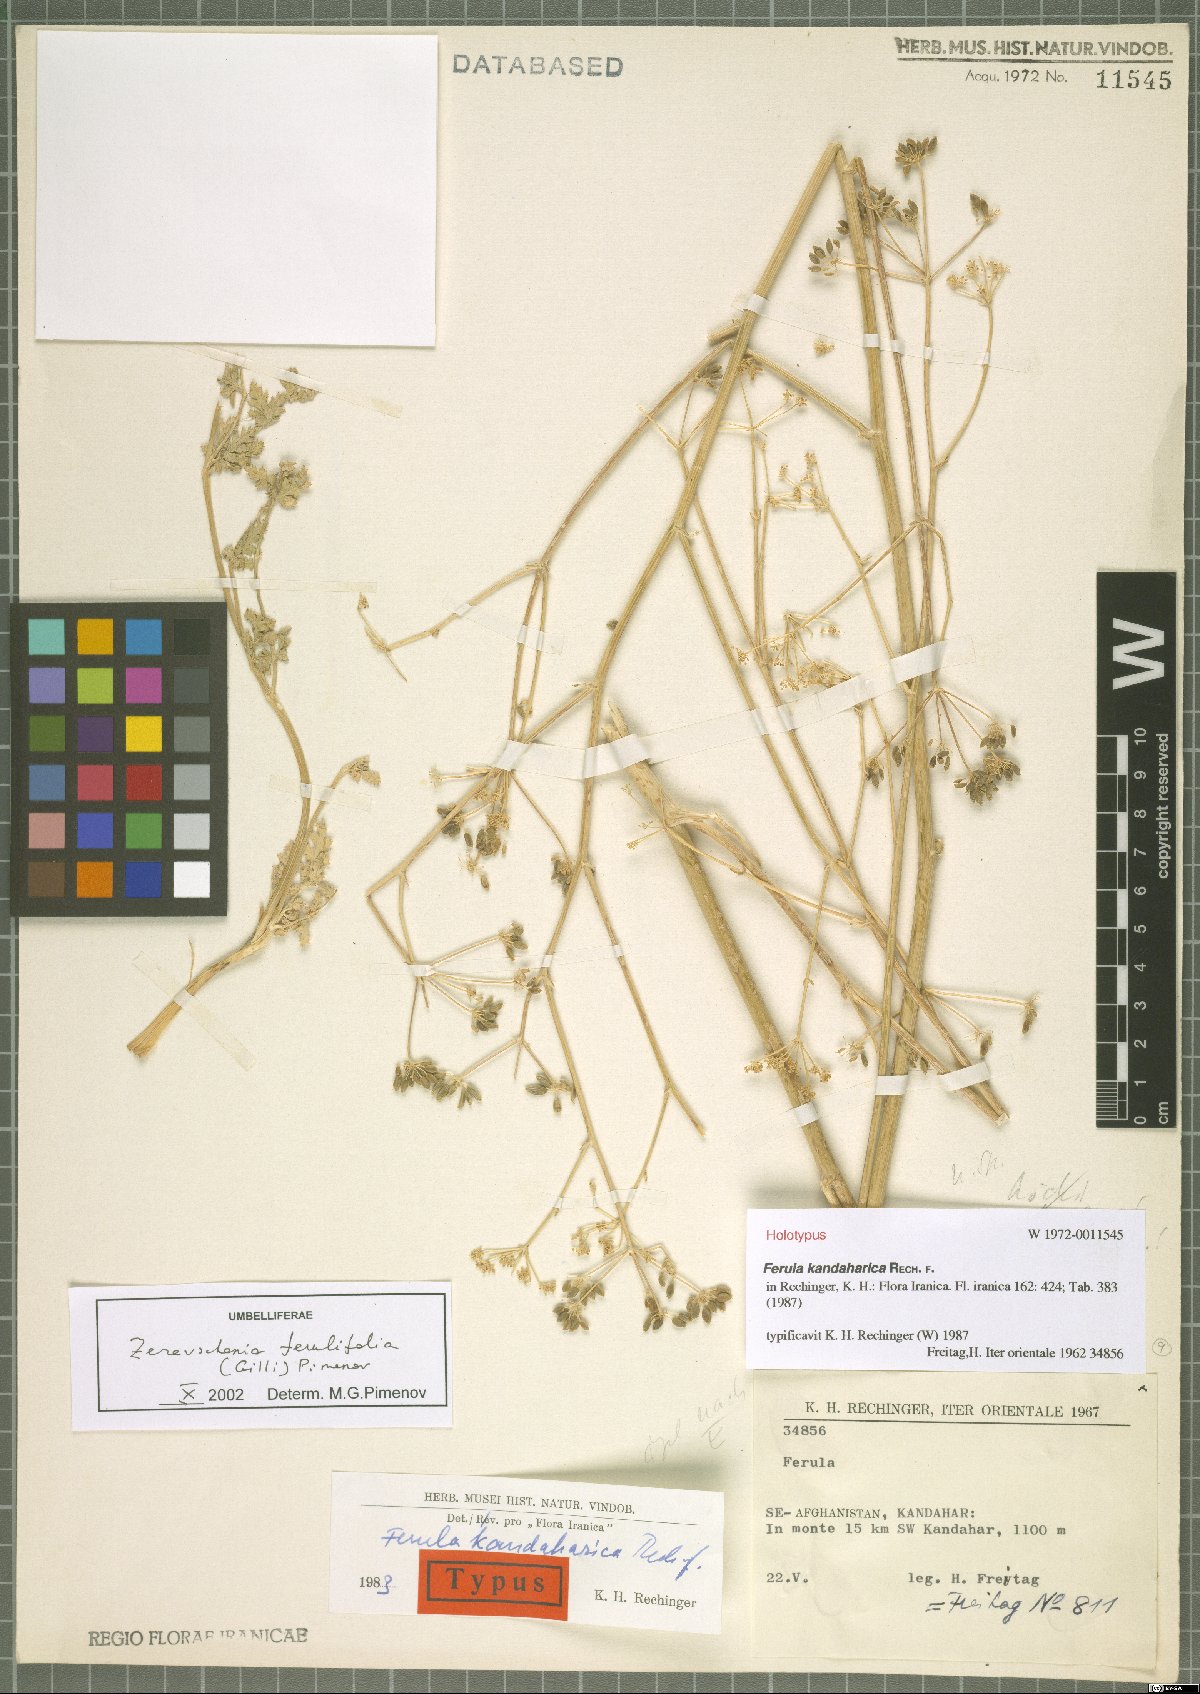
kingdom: Plantae
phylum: Tracheophyta
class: Magnoliopsida
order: Apiales
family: Apiaceae
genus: Zeravschania
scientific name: Zeravschania ferulifolia
